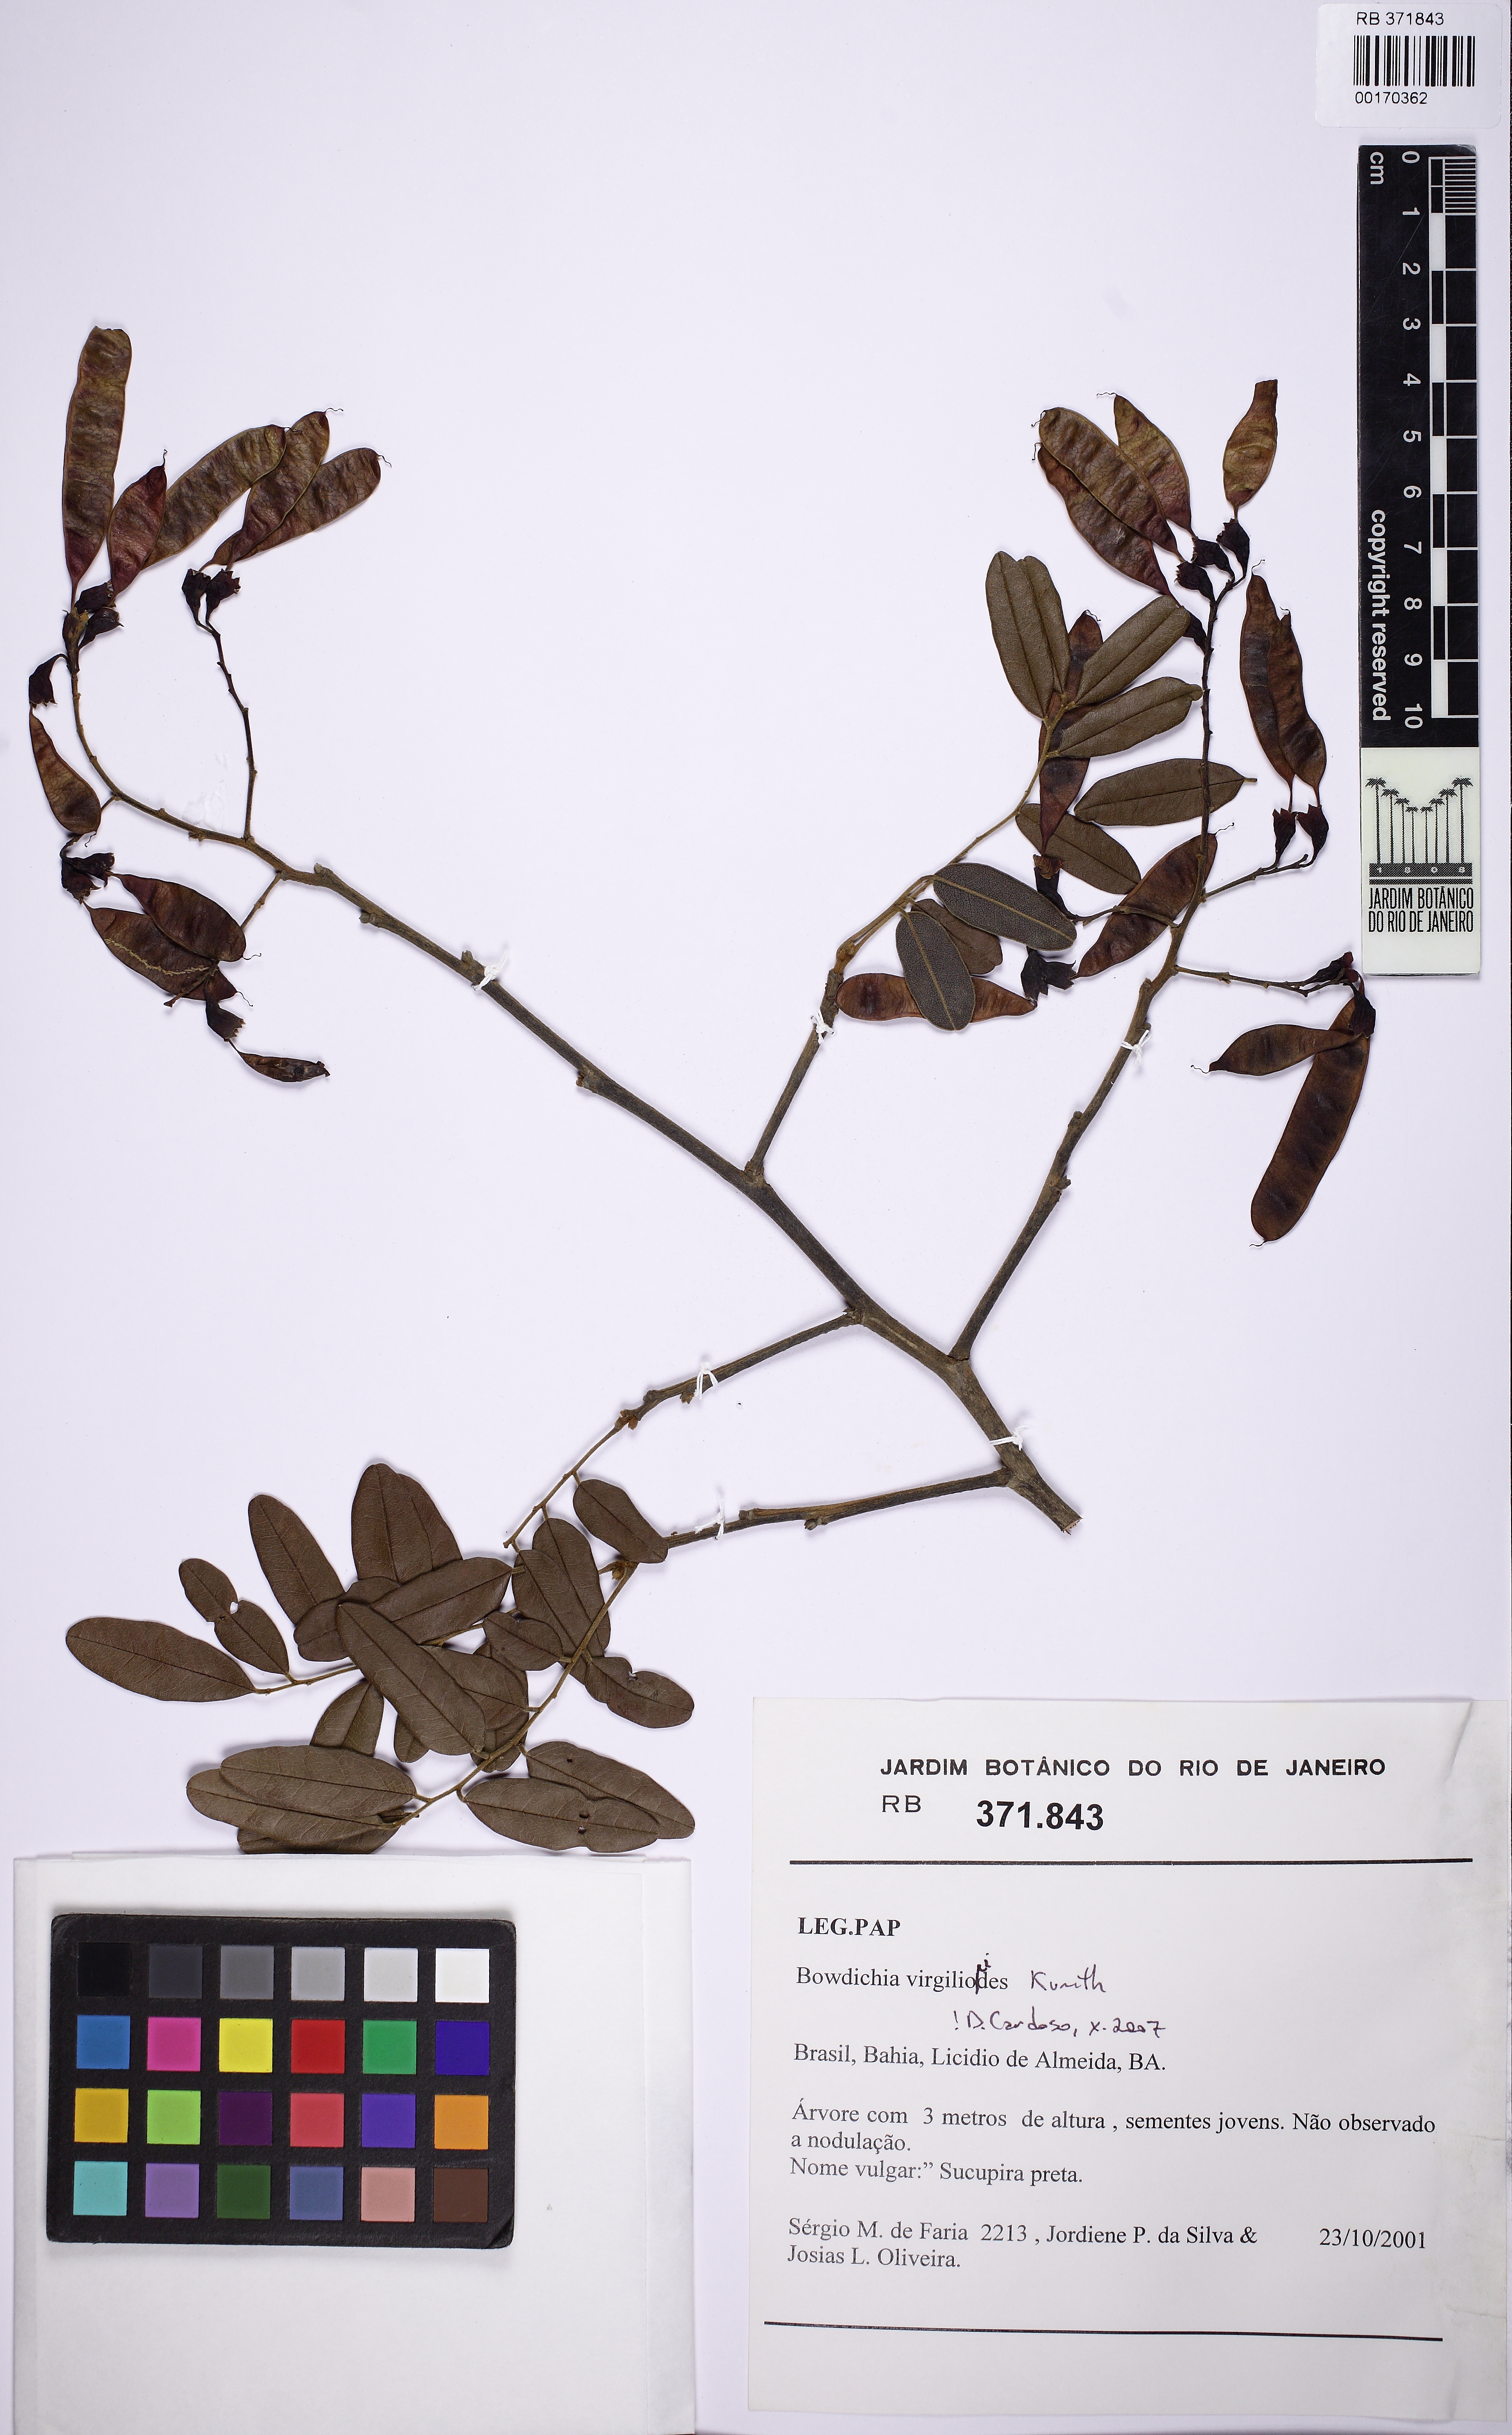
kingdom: Plantae
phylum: Tracheophyta
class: Magnoliopsida
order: Fabales
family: Fabaceae
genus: Bowdichia
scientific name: Bowdichia virgilioides
